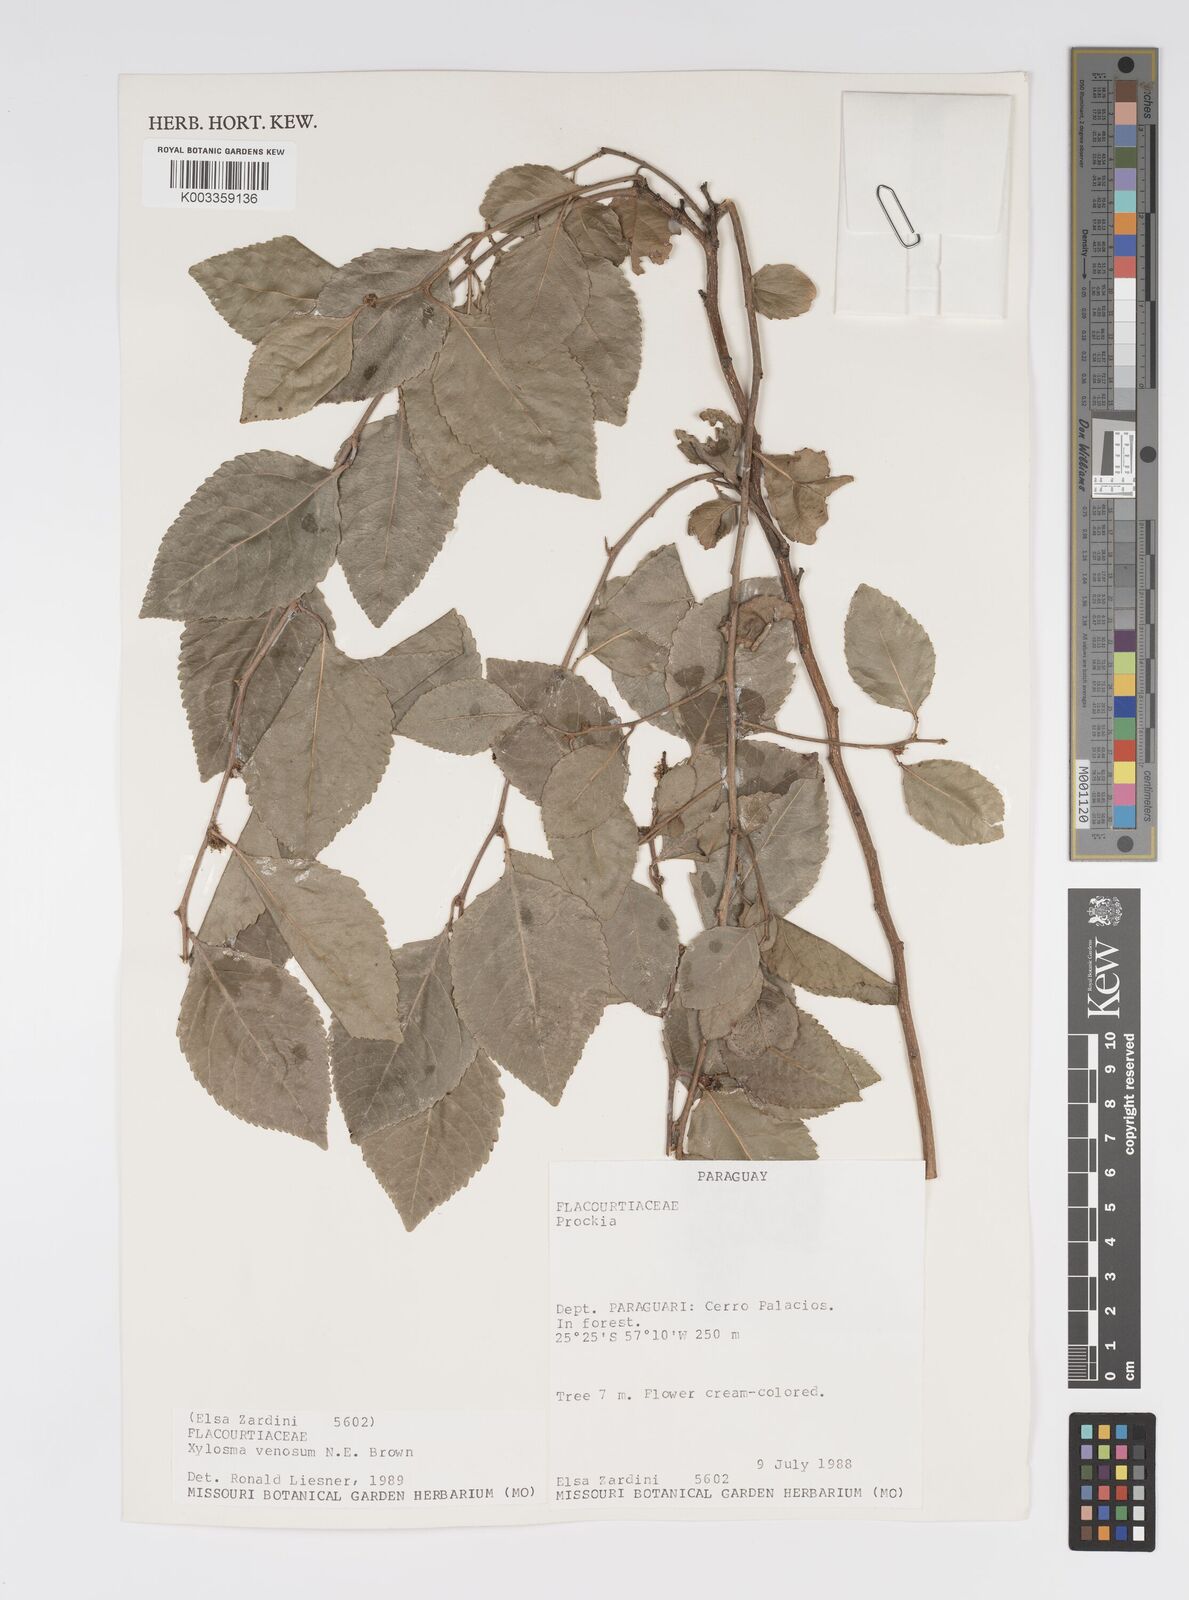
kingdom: Plantae
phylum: Tracheophyta
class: Magnoliopsida
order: Malpighiales
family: Salicaceae
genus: Xylosma
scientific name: Xylosma venosa
